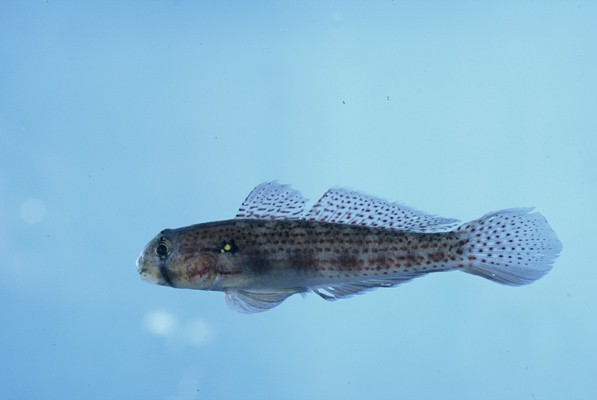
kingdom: Animalia
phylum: Chordata
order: Perciformes
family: Gobiidae
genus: Gnatholepis
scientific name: Gnatholepis cauerensis
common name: Bridled goby
